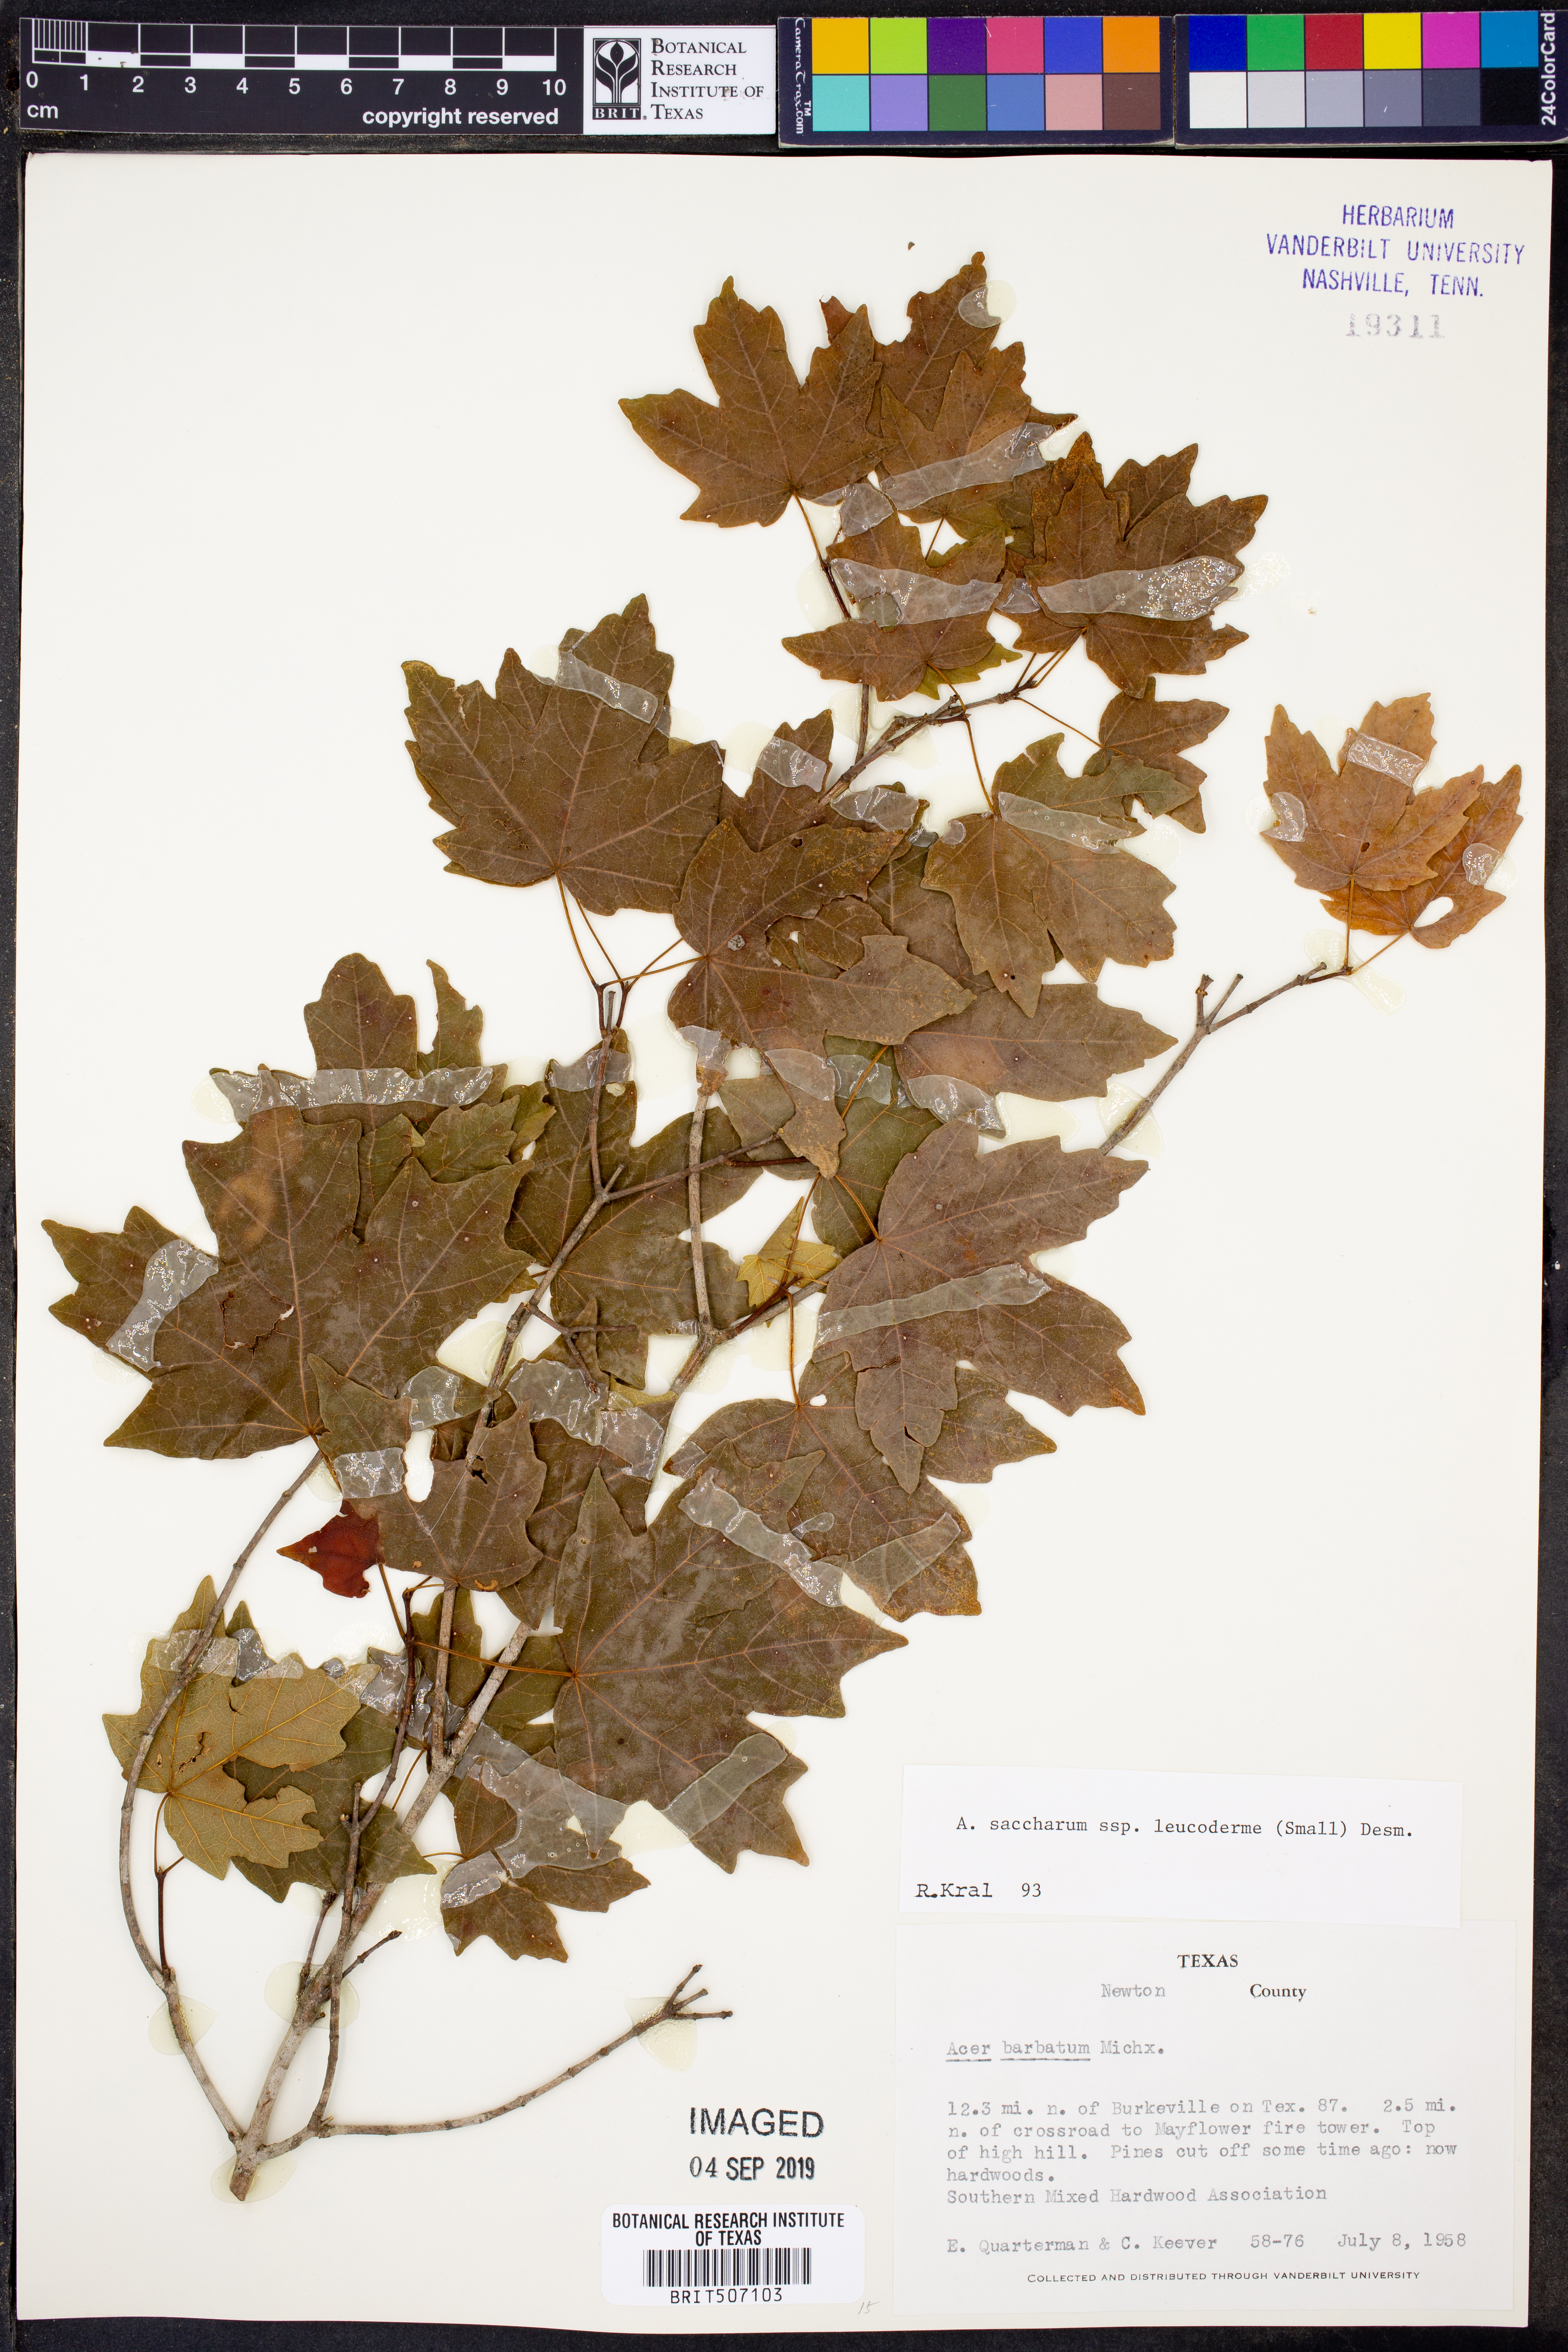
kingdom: Plantae
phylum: Tracheophyta
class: Magnoliopsida
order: Sapindales
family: Sapindaceae
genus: Acer
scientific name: Acer leucoderme
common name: Chalk maple
